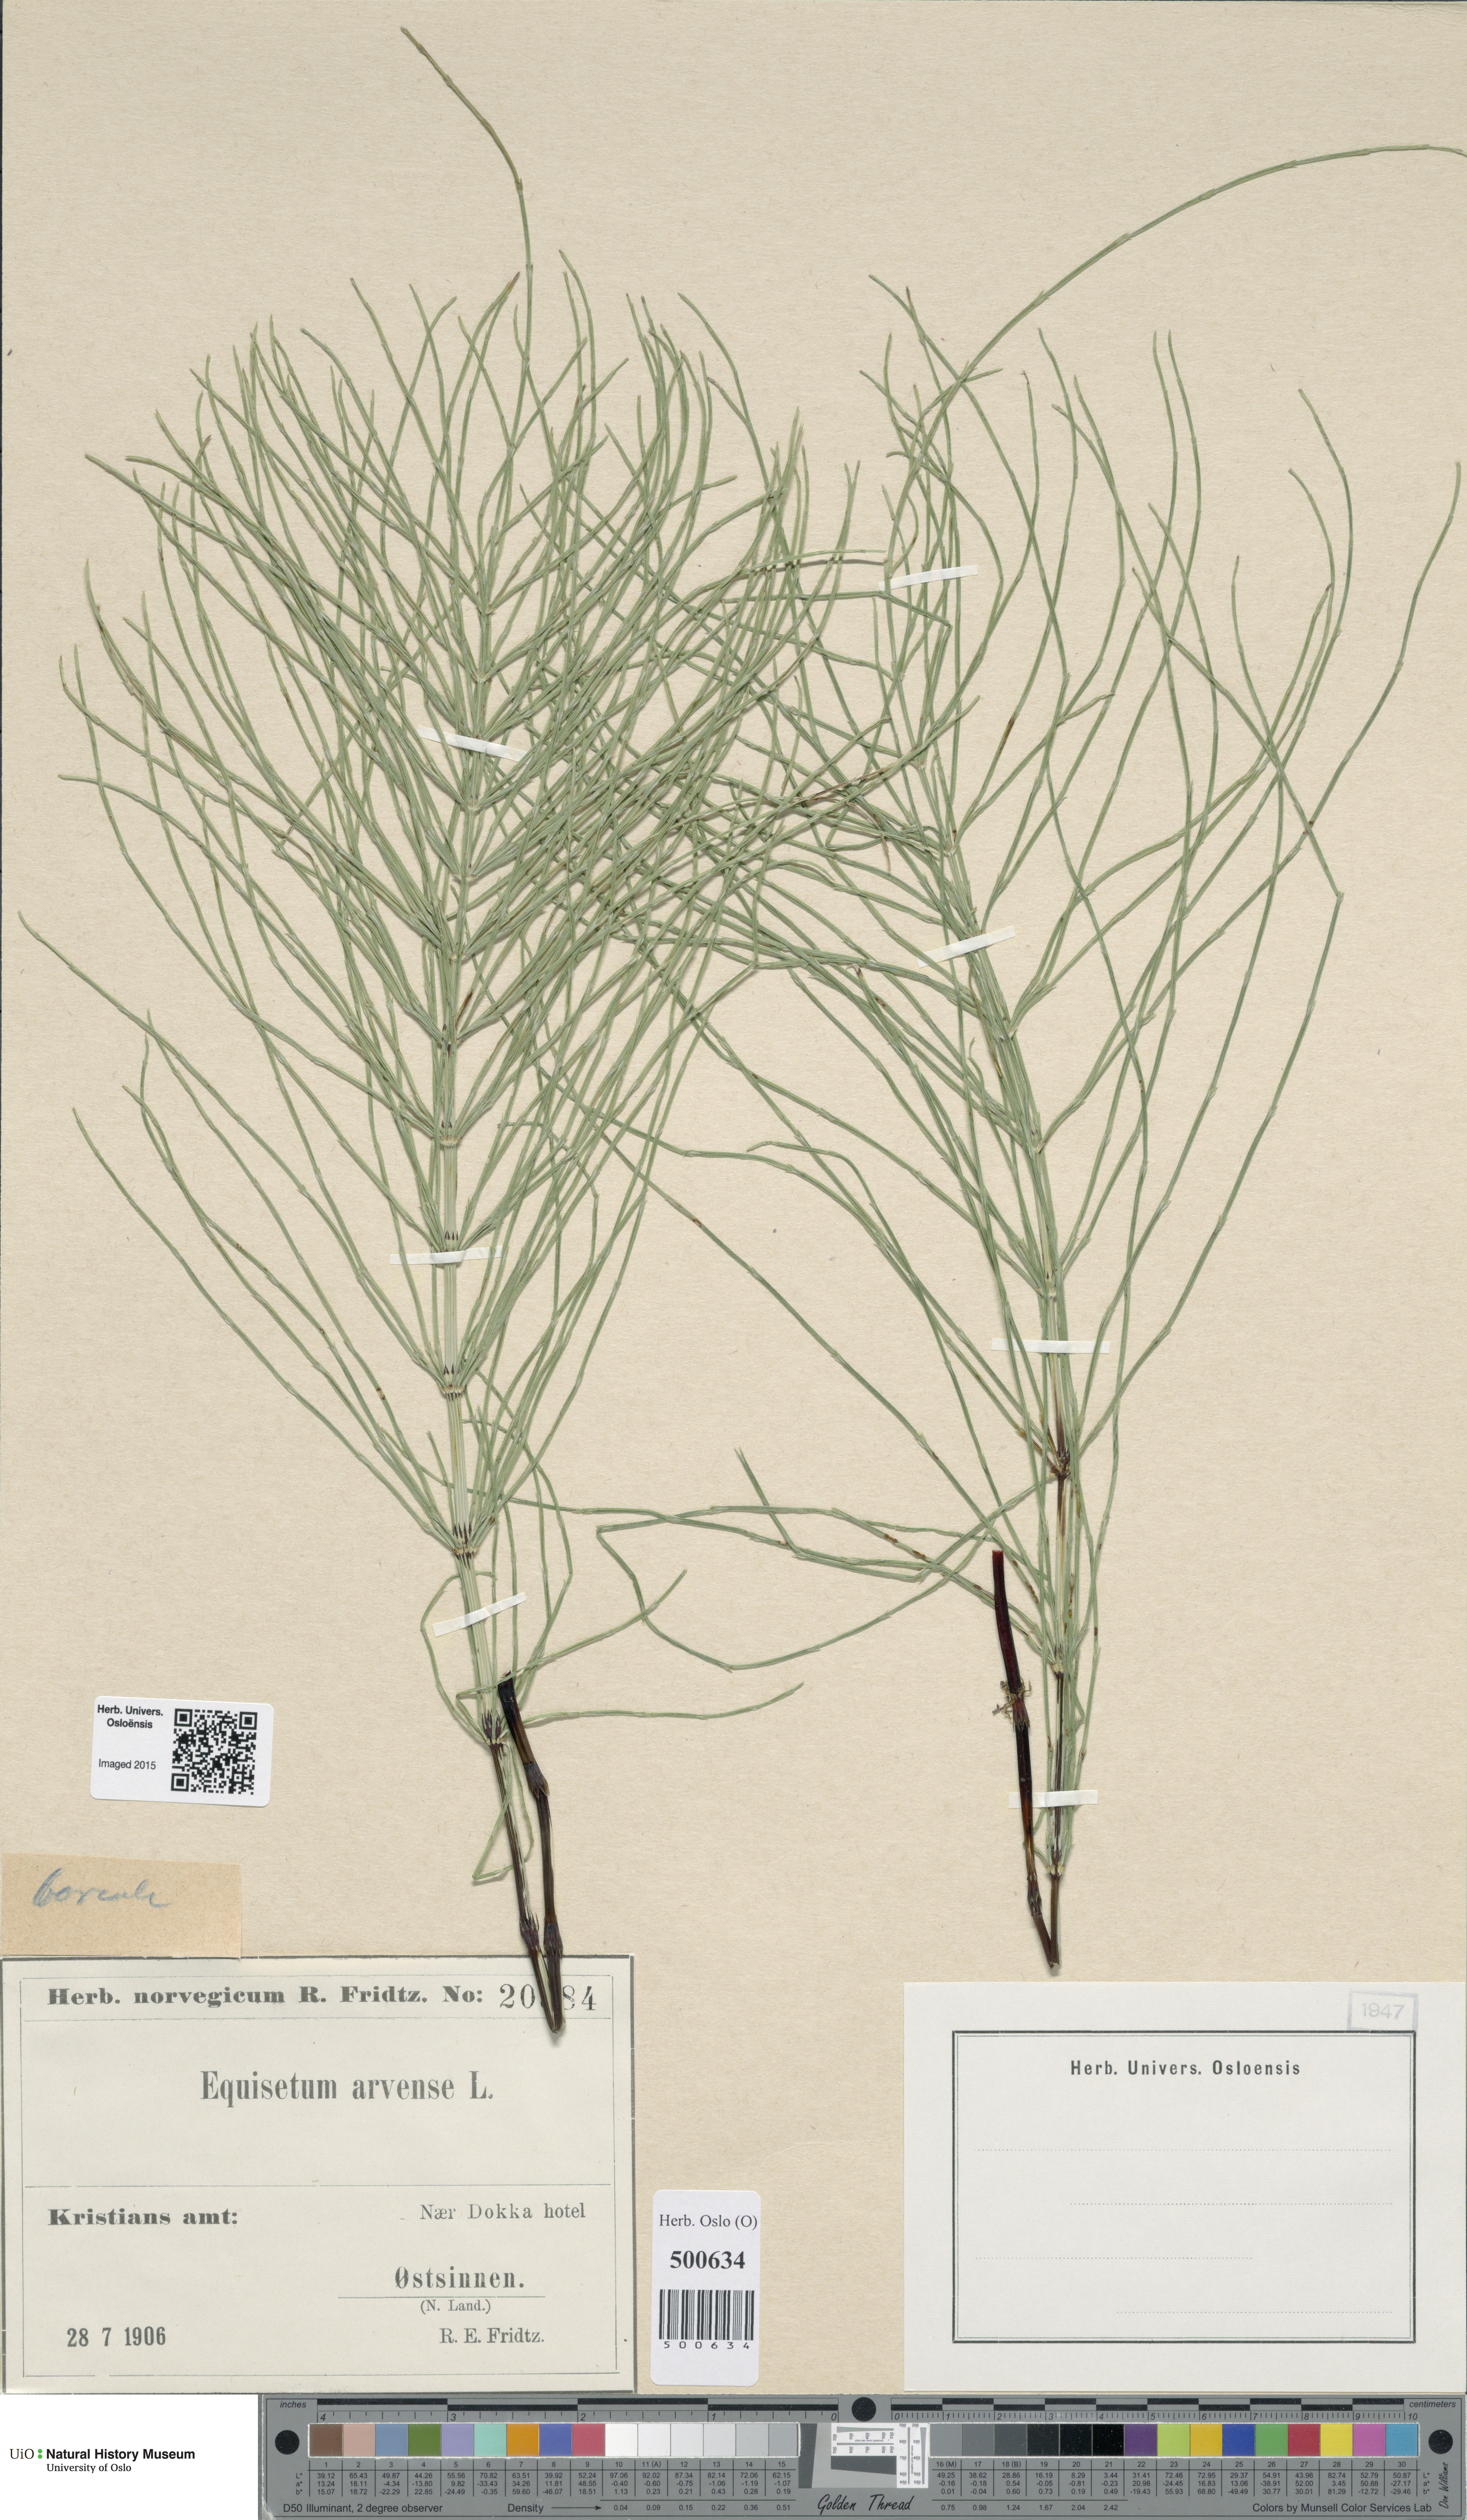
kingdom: Plantae
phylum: Tracheophyta
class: Polypodiopsida
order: Equisetales
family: Equisetaceae
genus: Equisetum
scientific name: Equisetum arvense
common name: Field horsetail
